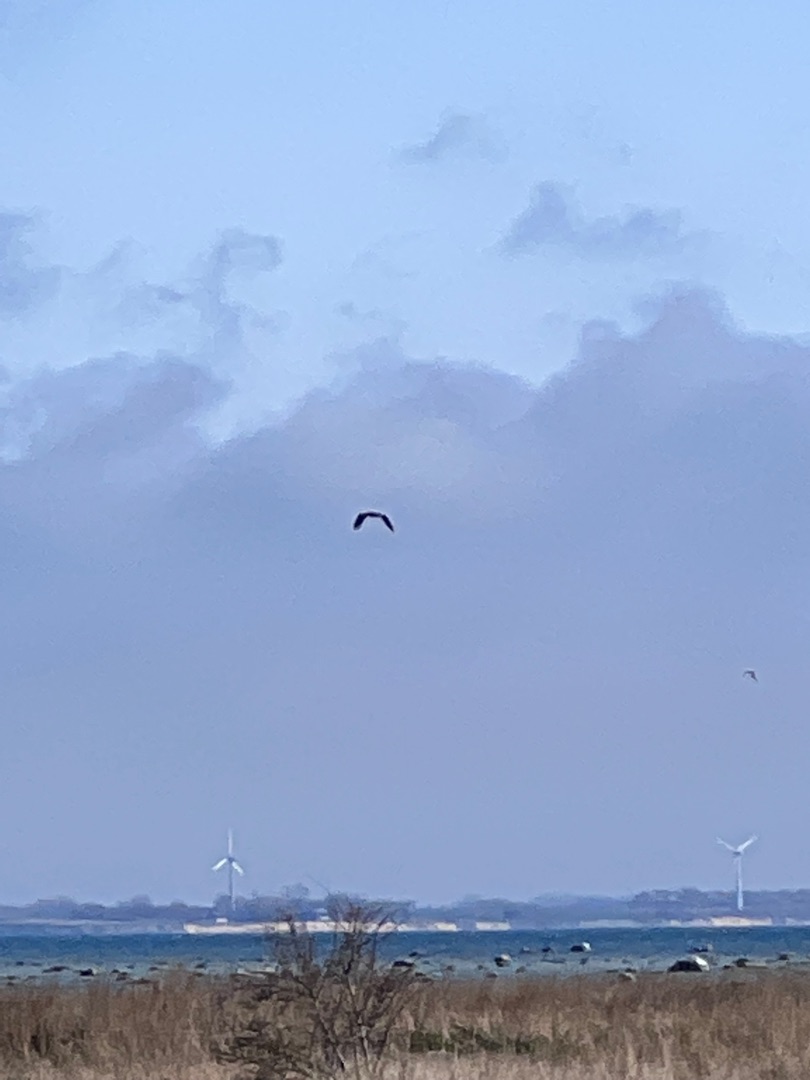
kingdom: Animalia
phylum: Chordata
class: Aves
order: Accipitriformes
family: Accipitridae
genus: Haliaeetus
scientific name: Haliaeetus albicilla
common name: Havørn
